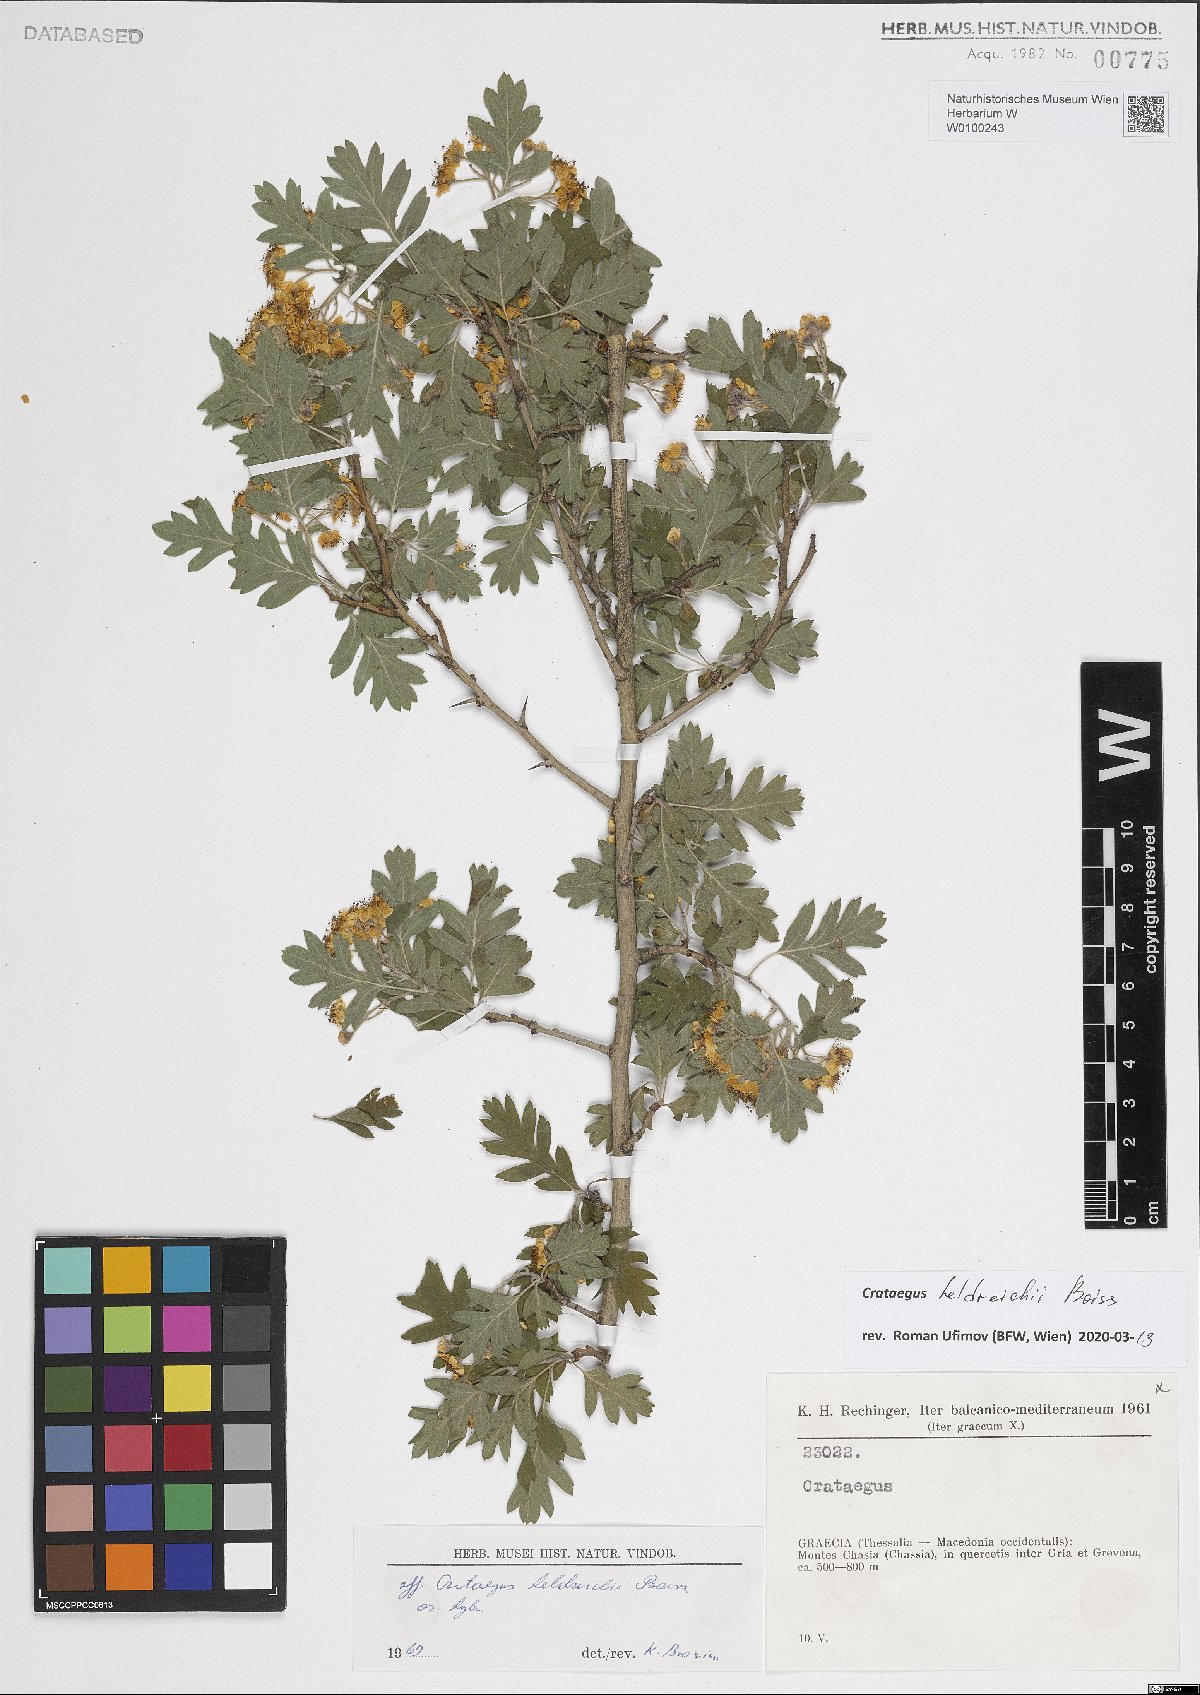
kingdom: Plantae
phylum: Tracheophyta
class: Magnoliopsida
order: Rosales
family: Rosaceae
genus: Crataegus
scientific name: Crataegus heldreichii
